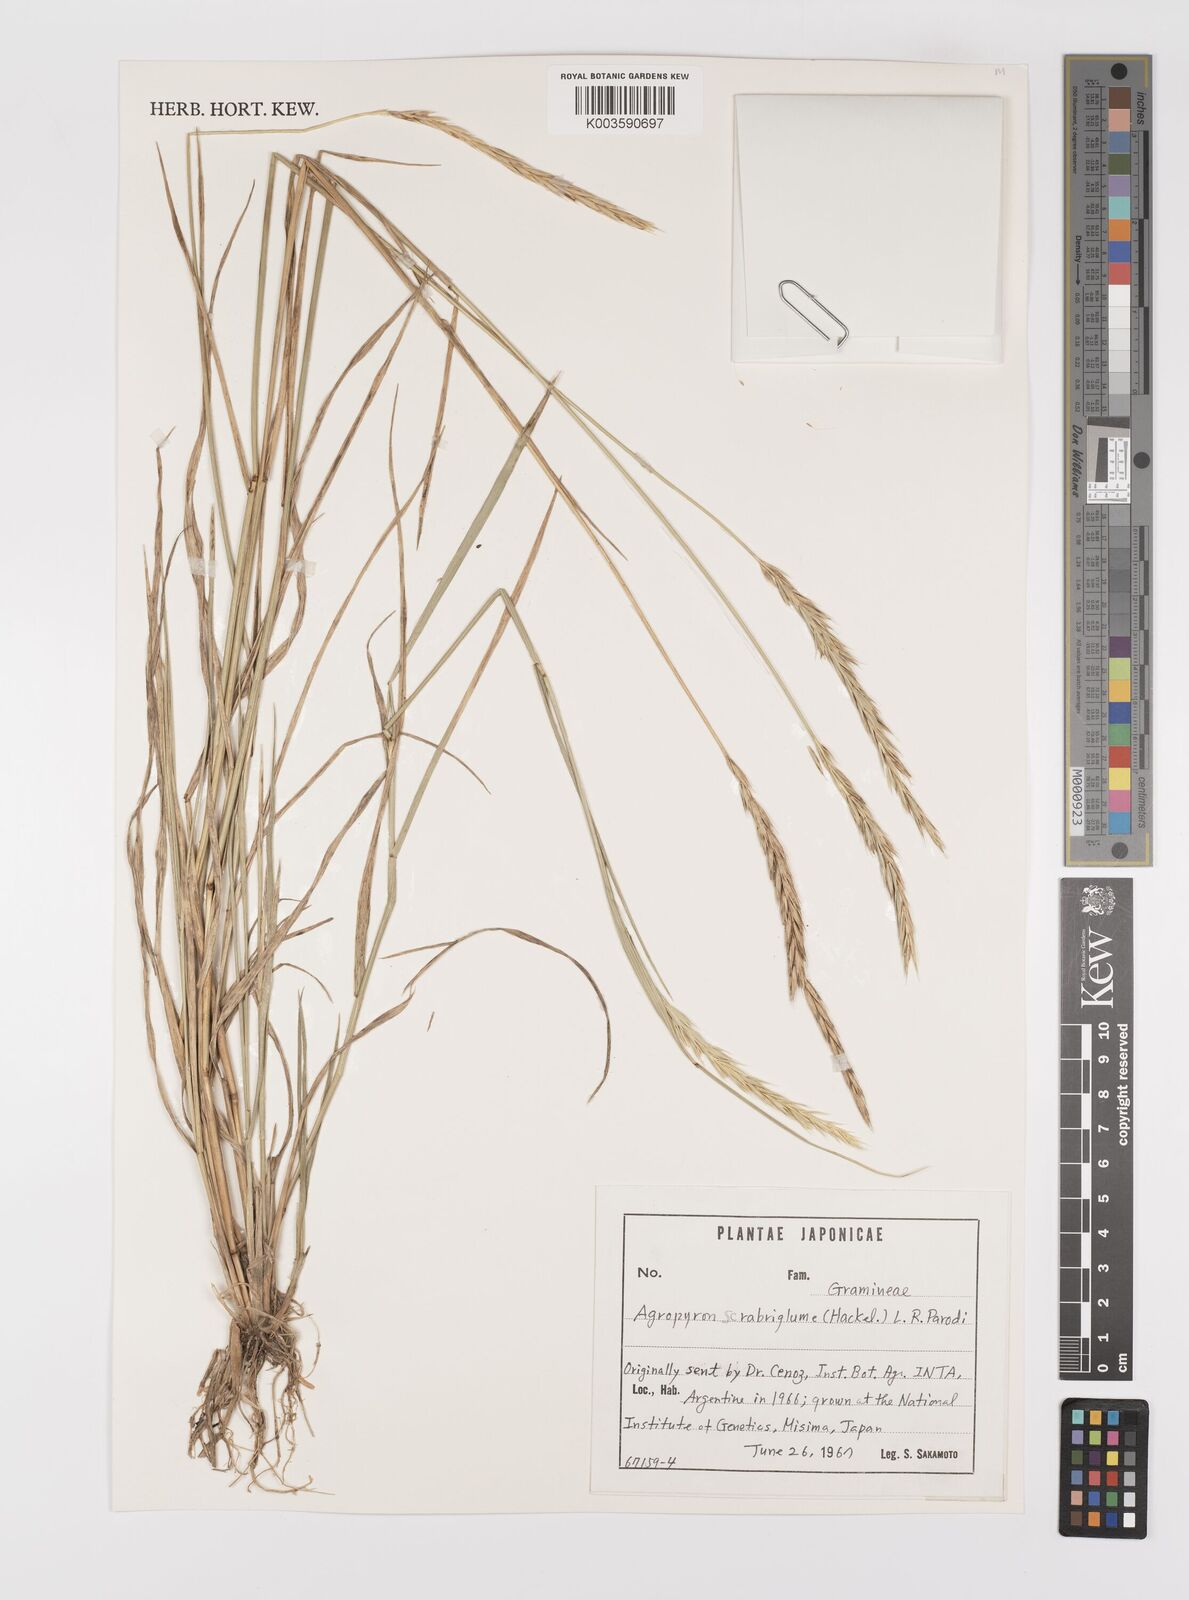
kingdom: Plantae
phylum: Tracheophyta
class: Liliopsida
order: Poales
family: Poaceae
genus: Elymus
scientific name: Elymus scabriglumis
